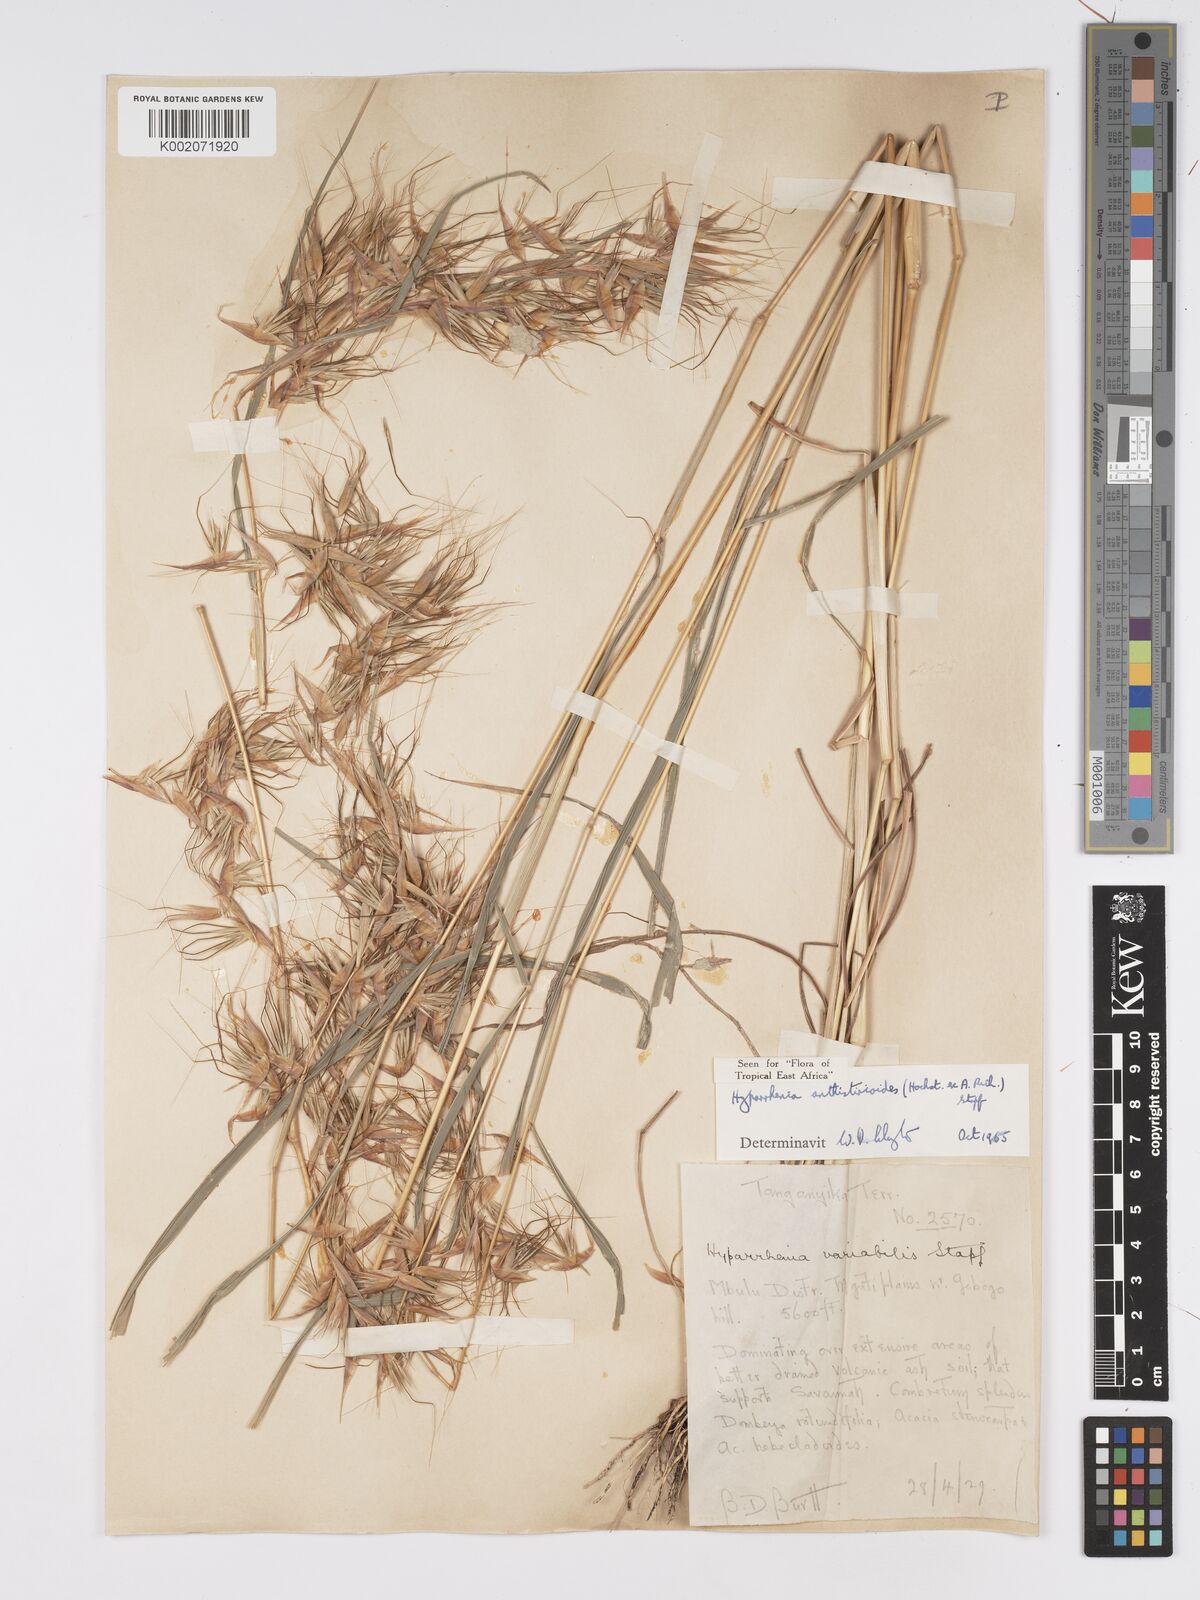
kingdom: Plantae
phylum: Tracheophyta
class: Liliopsida
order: Poales
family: Poaceae
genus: Hyparrhenia
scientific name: Hyparrhenia anthistirioides
